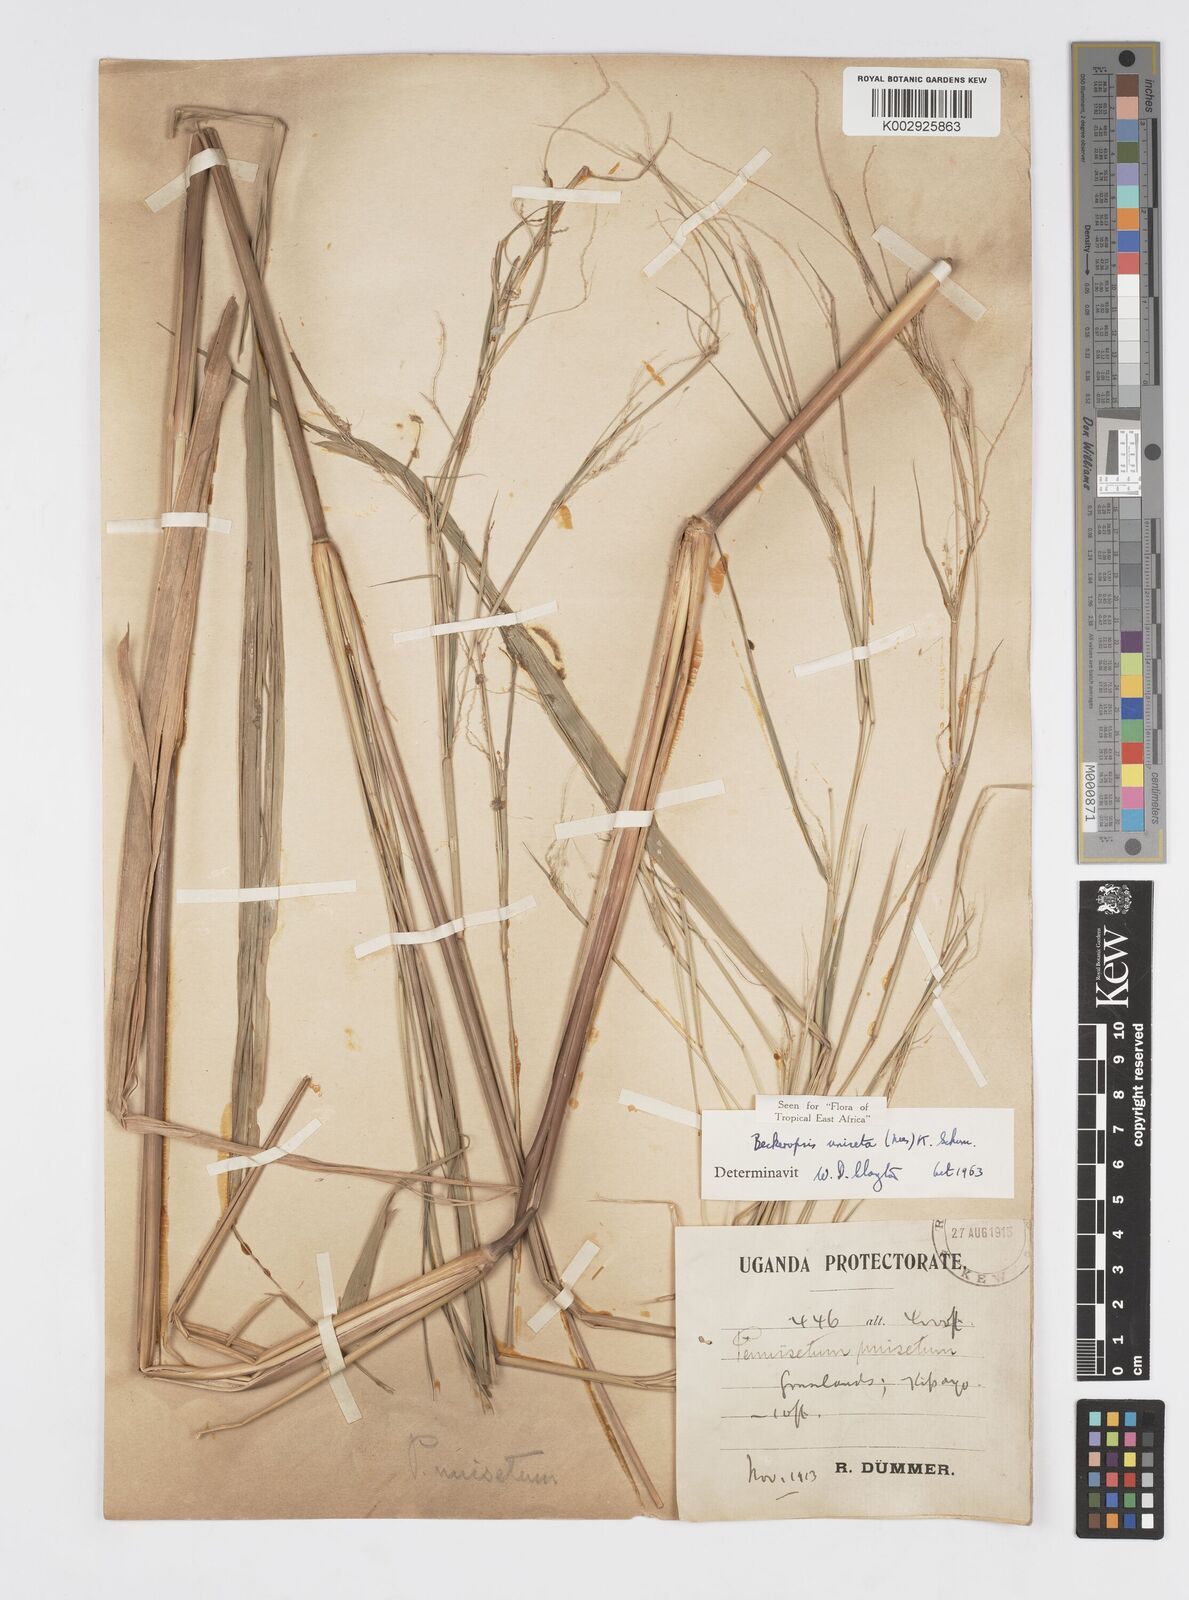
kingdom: Plantae
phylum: Tracheophyta
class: Liliopsida
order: Poales
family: Poaceae
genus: Cenchrus
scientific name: Cenchrus unisetus
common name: Natal grass
